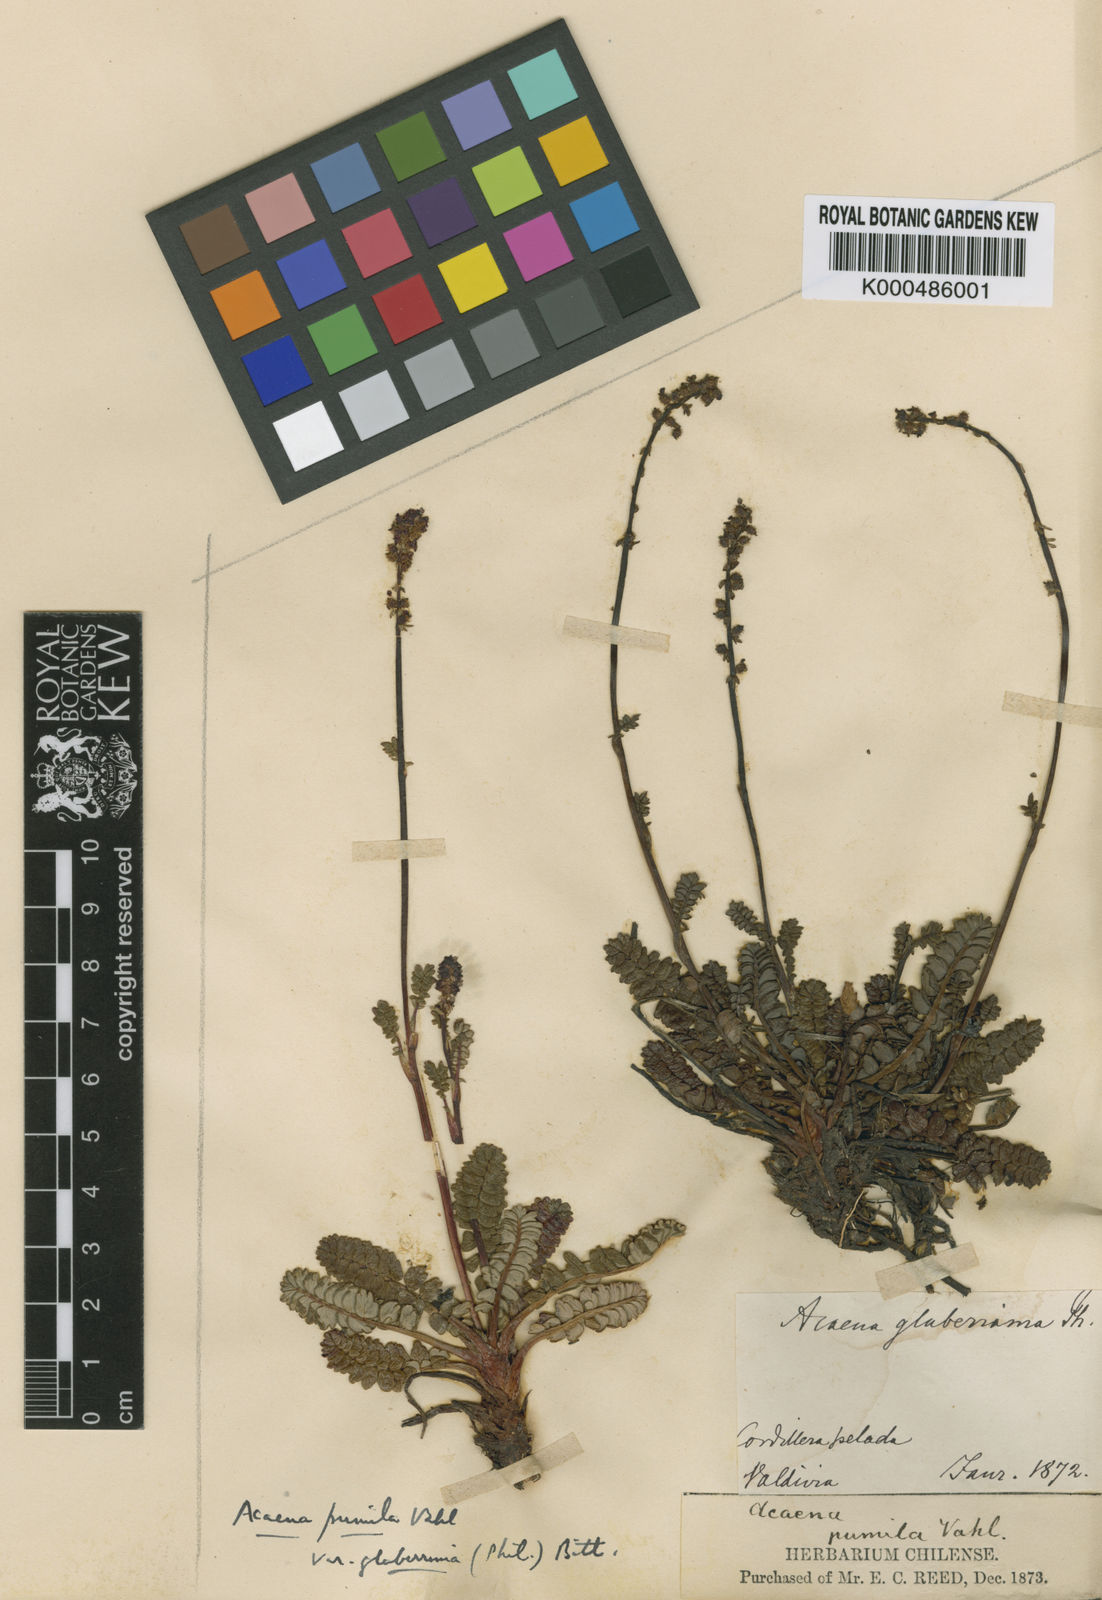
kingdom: Plantae
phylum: Tracheophyta
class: Magnoliopsida
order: Rosales
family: Rosaceae
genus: Acaena
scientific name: Acaena pumila
